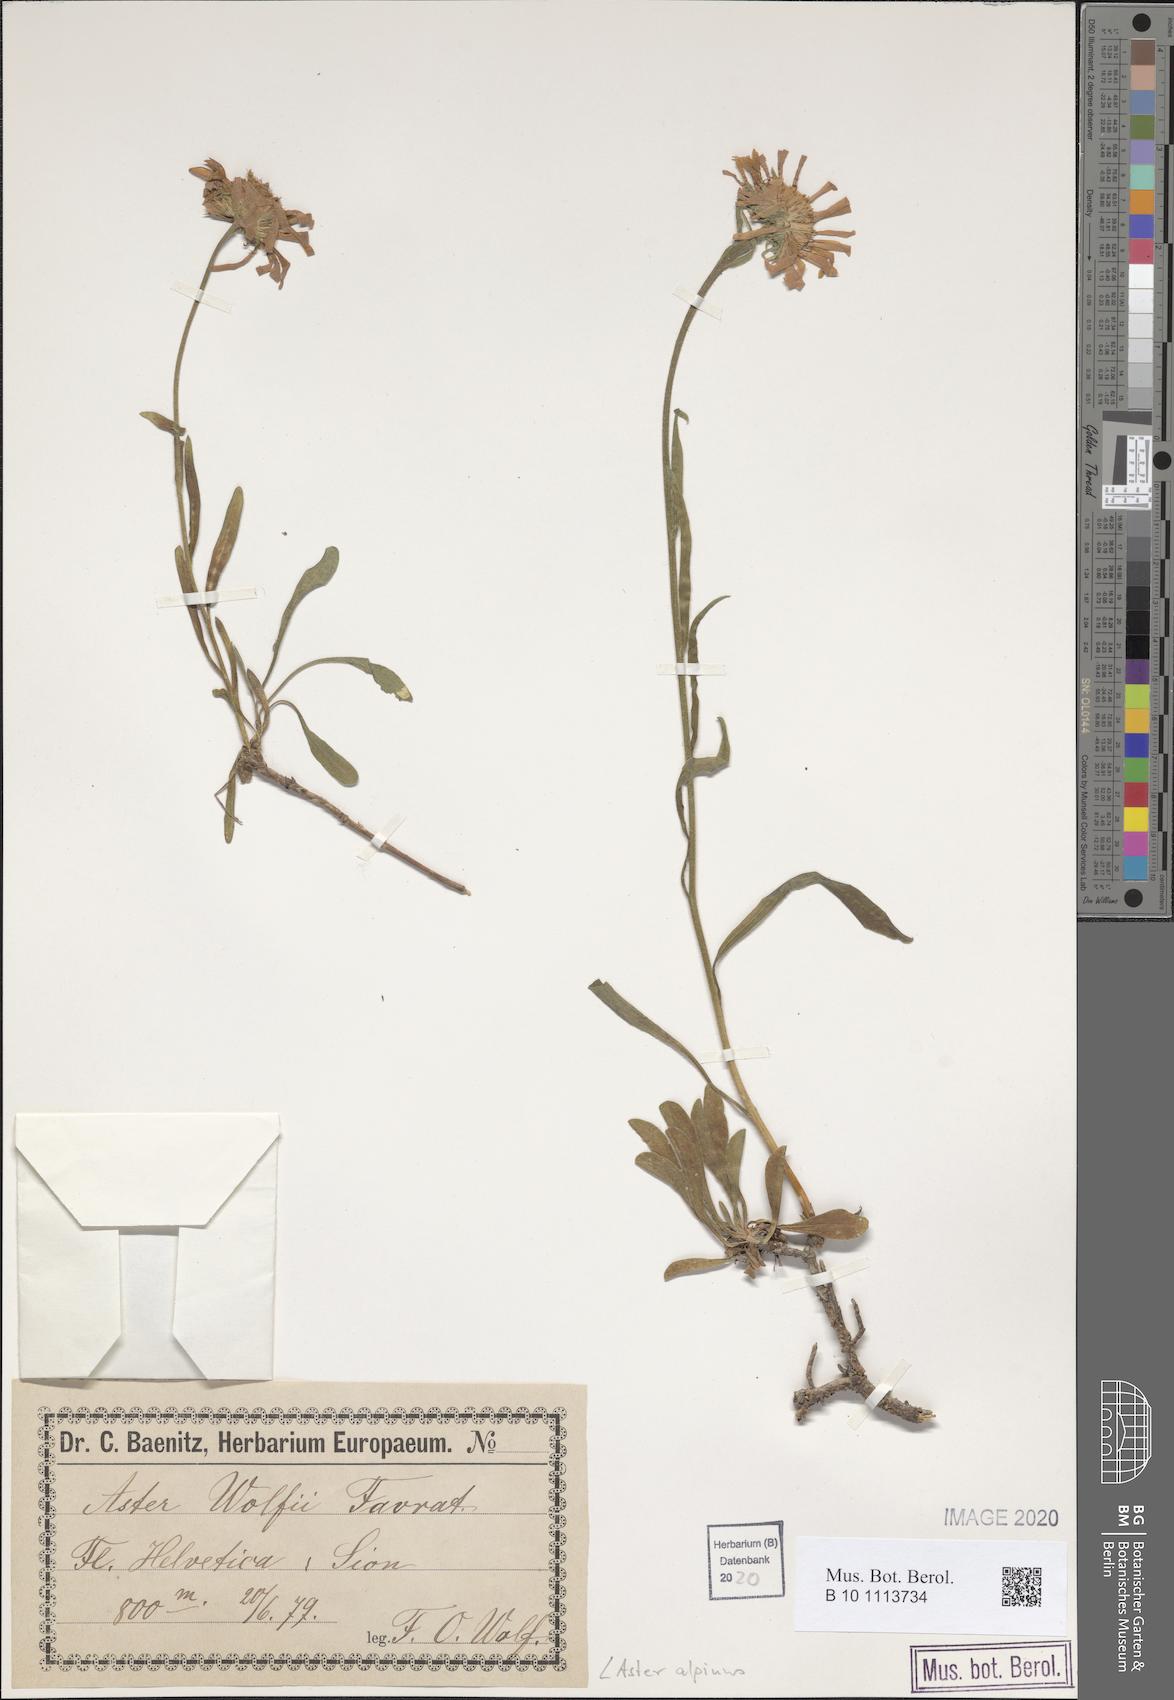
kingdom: Plantae
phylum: Tracheophyta
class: Magnoliopsida
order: Asterales
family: Asteraceae
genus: Aster
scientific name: Aster alpinus
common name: Alpine aster
